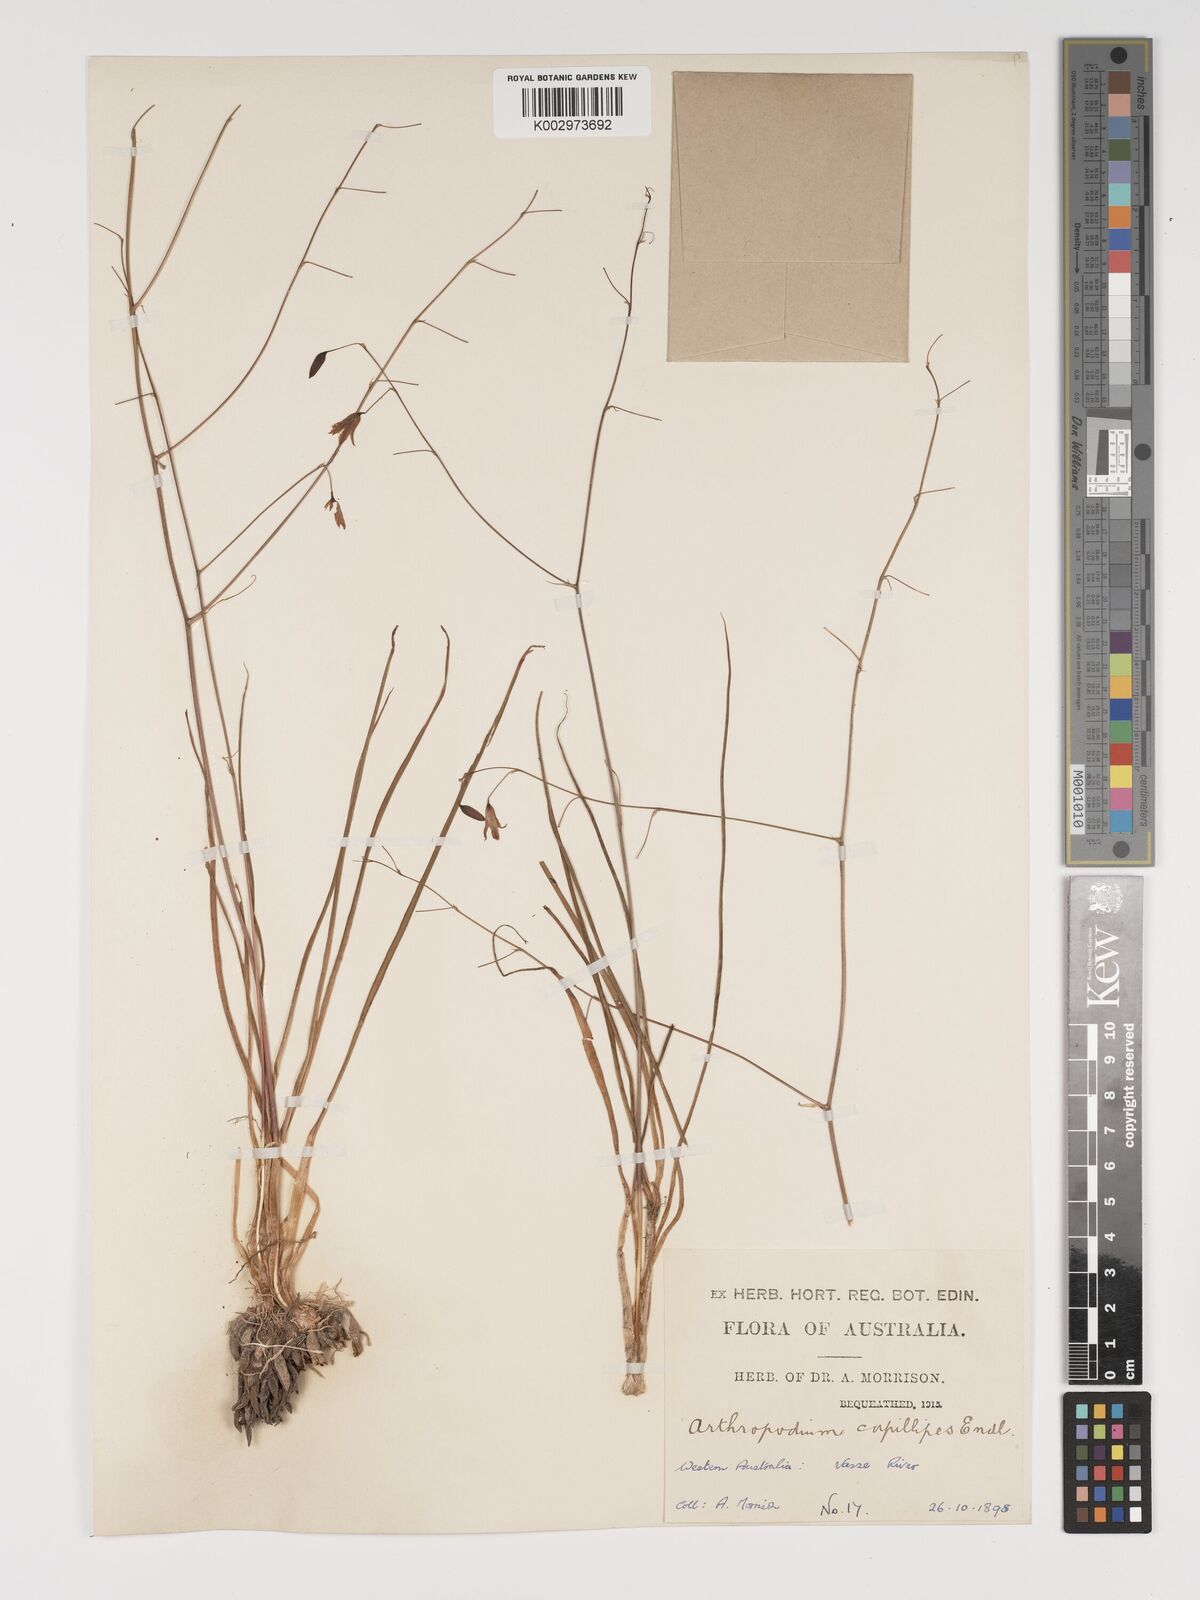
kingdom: Plantae
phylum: Tracheophyta
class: Liliopsida
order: Asparagales
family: Asparagaceae
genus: Dichopogon
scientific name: Dichopogon preissii
